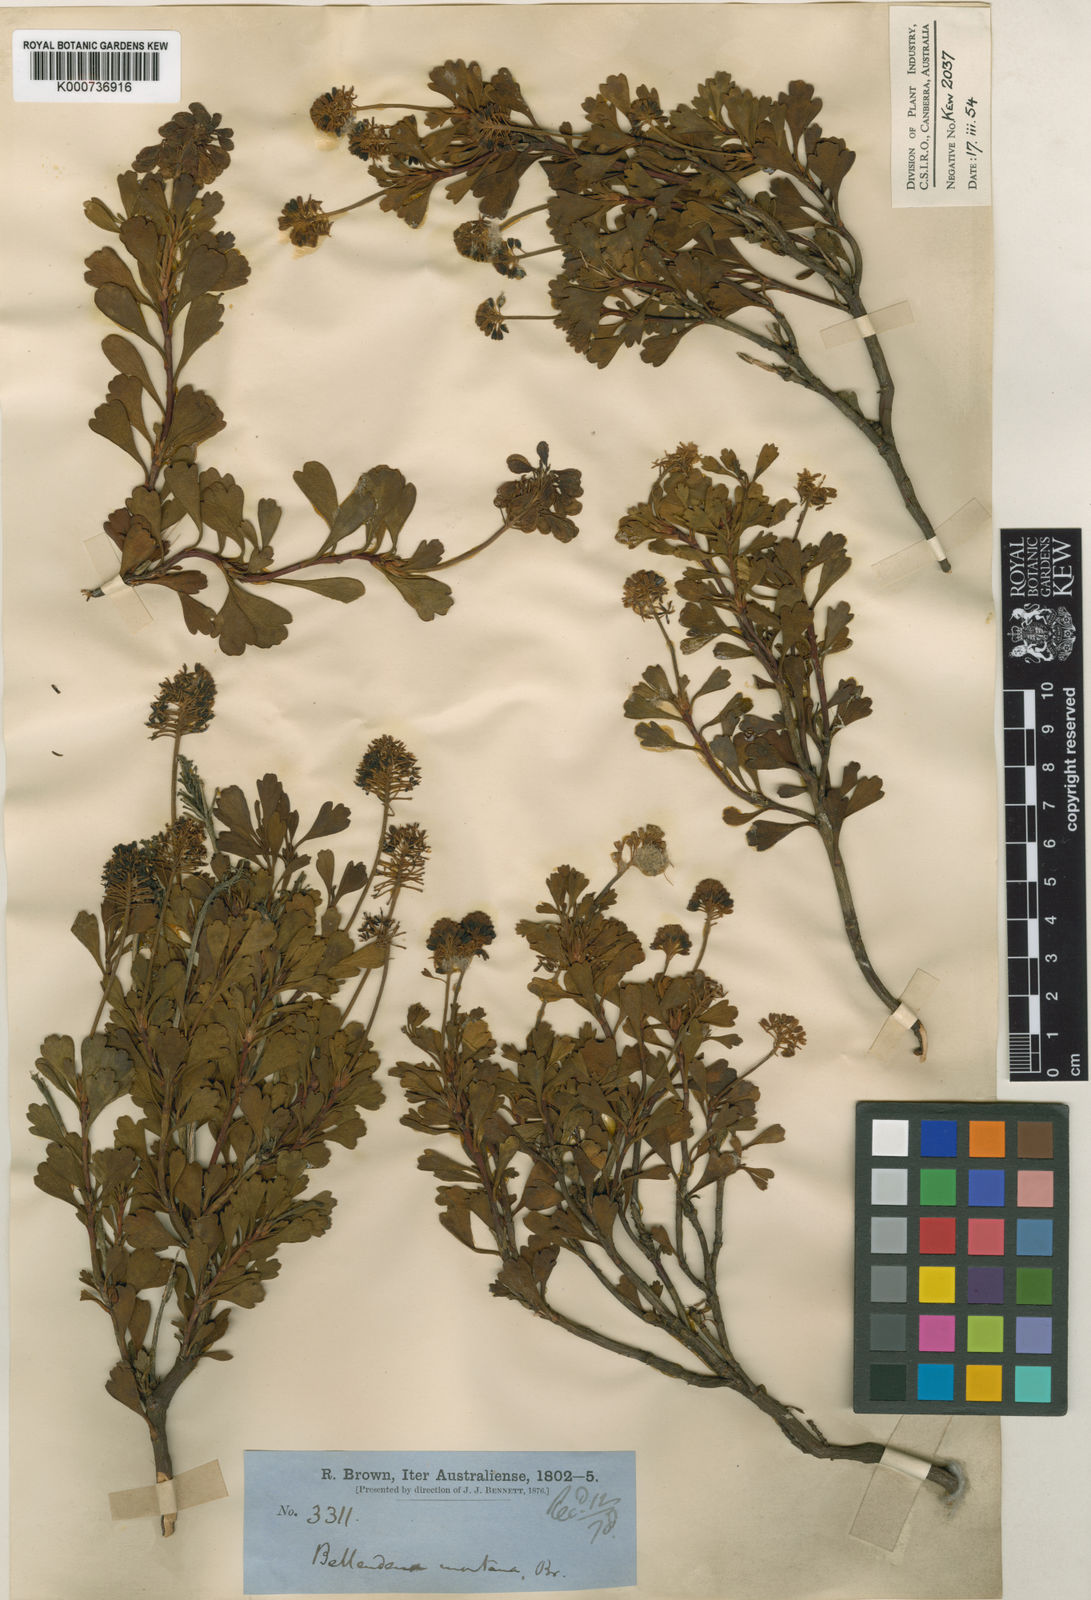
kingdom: Plantae
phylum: Tracheophyta
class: Magnoliopsida
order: Proteales
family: Proteaceae
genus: Bellendena
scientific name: Bellendena montana
